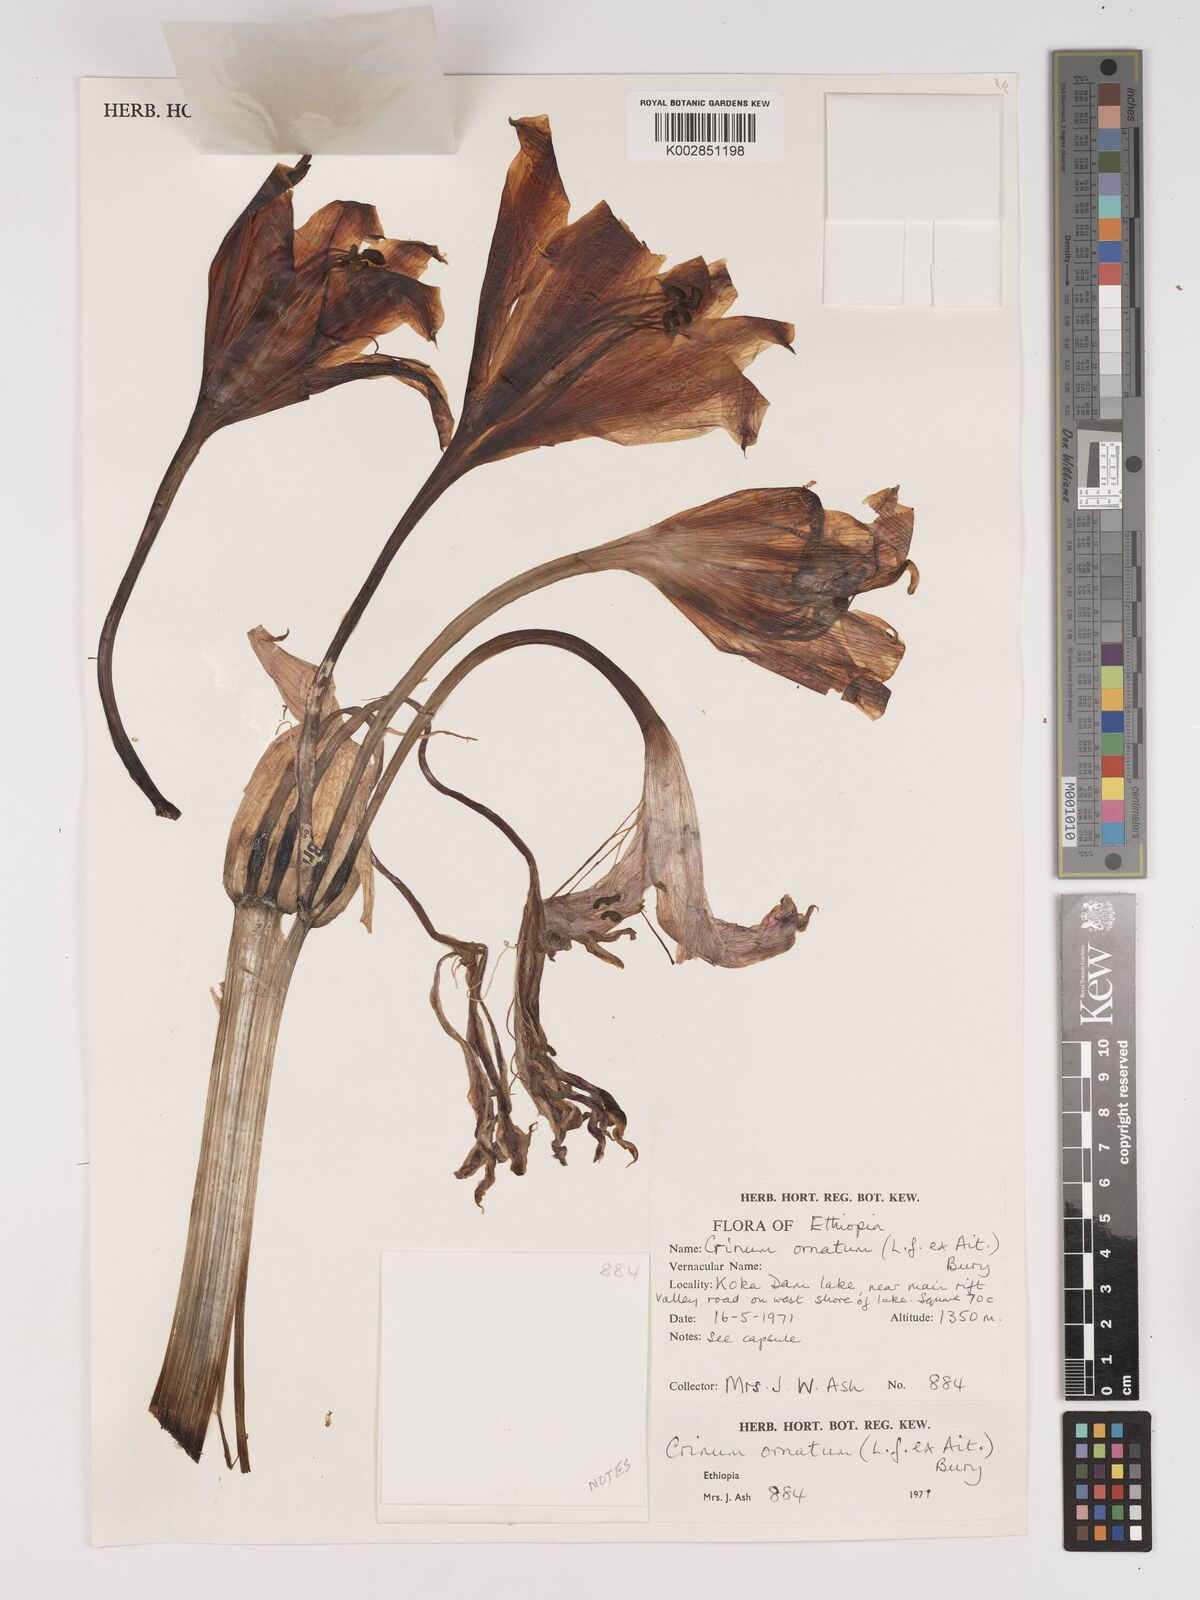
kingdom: Plantae
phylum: Tracheophyta
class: Liliopsida
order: Asparagales
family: Amaryllidaceae
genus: Crinum
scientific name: Crinum zeylanicum
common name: Ceylon swamplily
